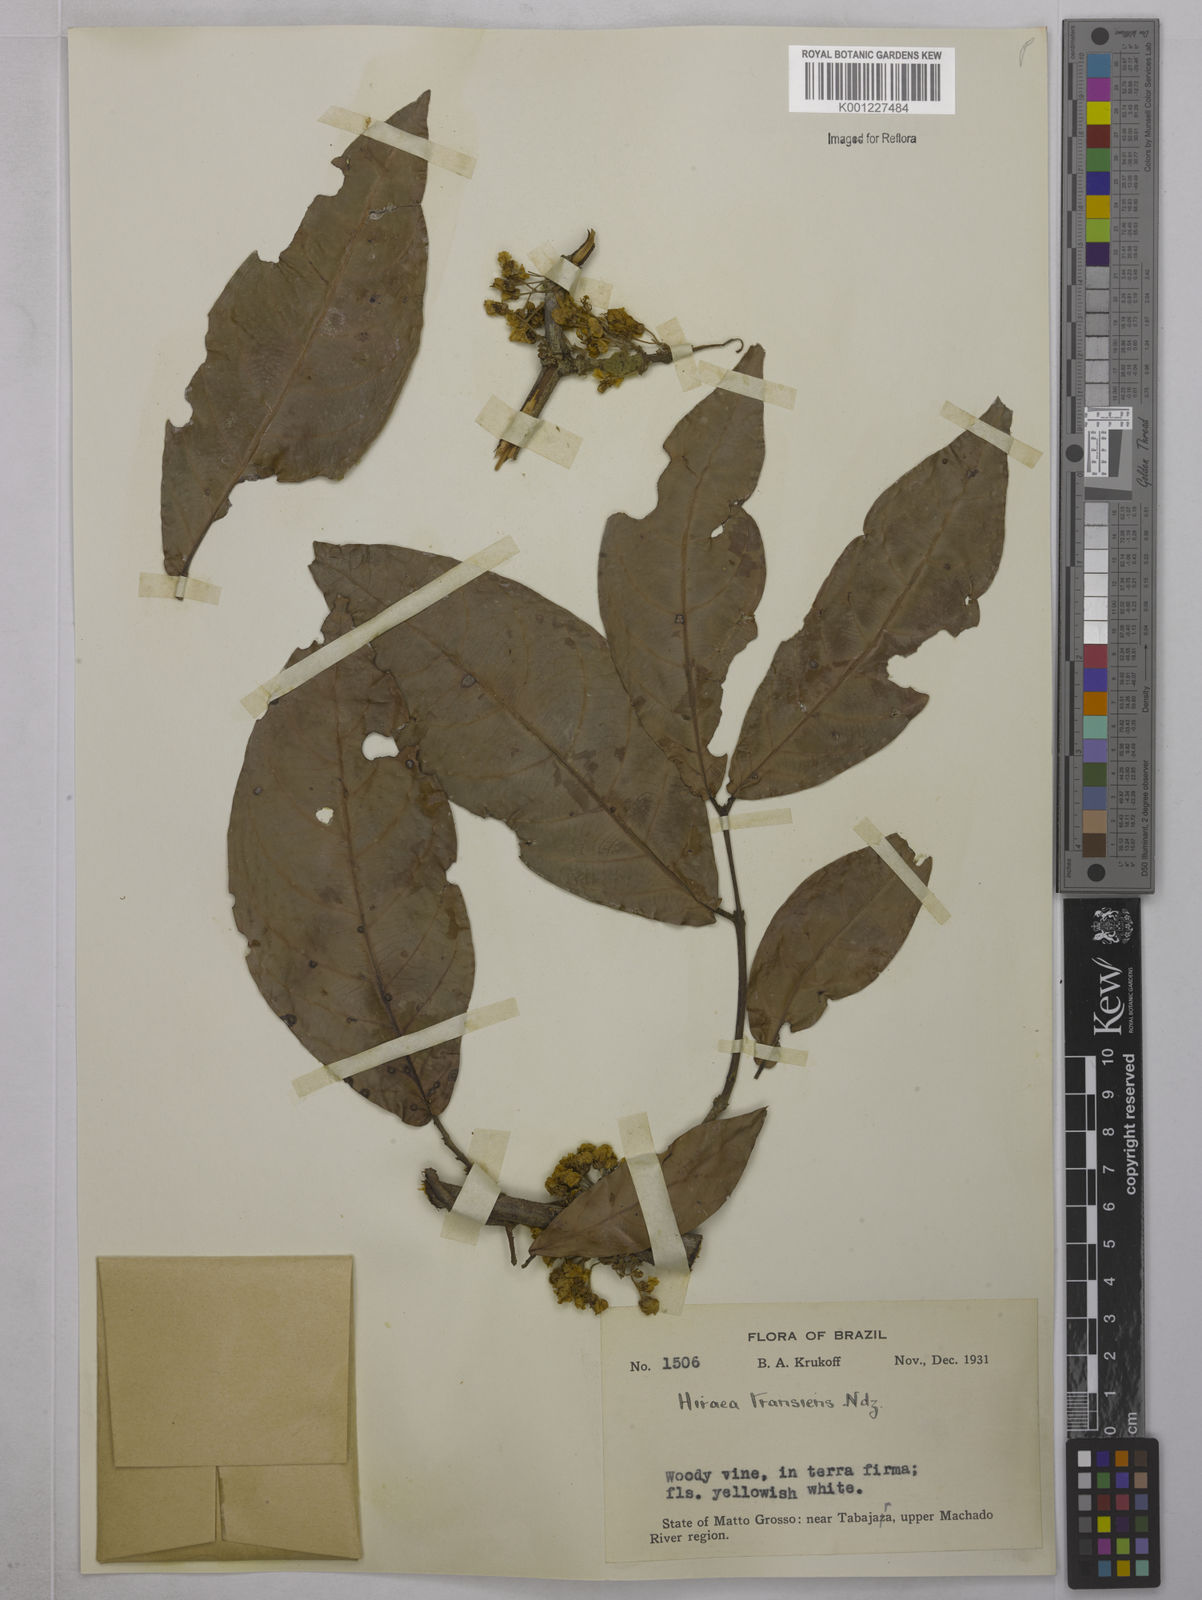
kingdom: Plantae
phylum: Tracheophyta
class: Magnoliopsida
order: Malpighiales
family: Malpighiaceae
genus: Hiraea
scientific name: Hiraea transiens
